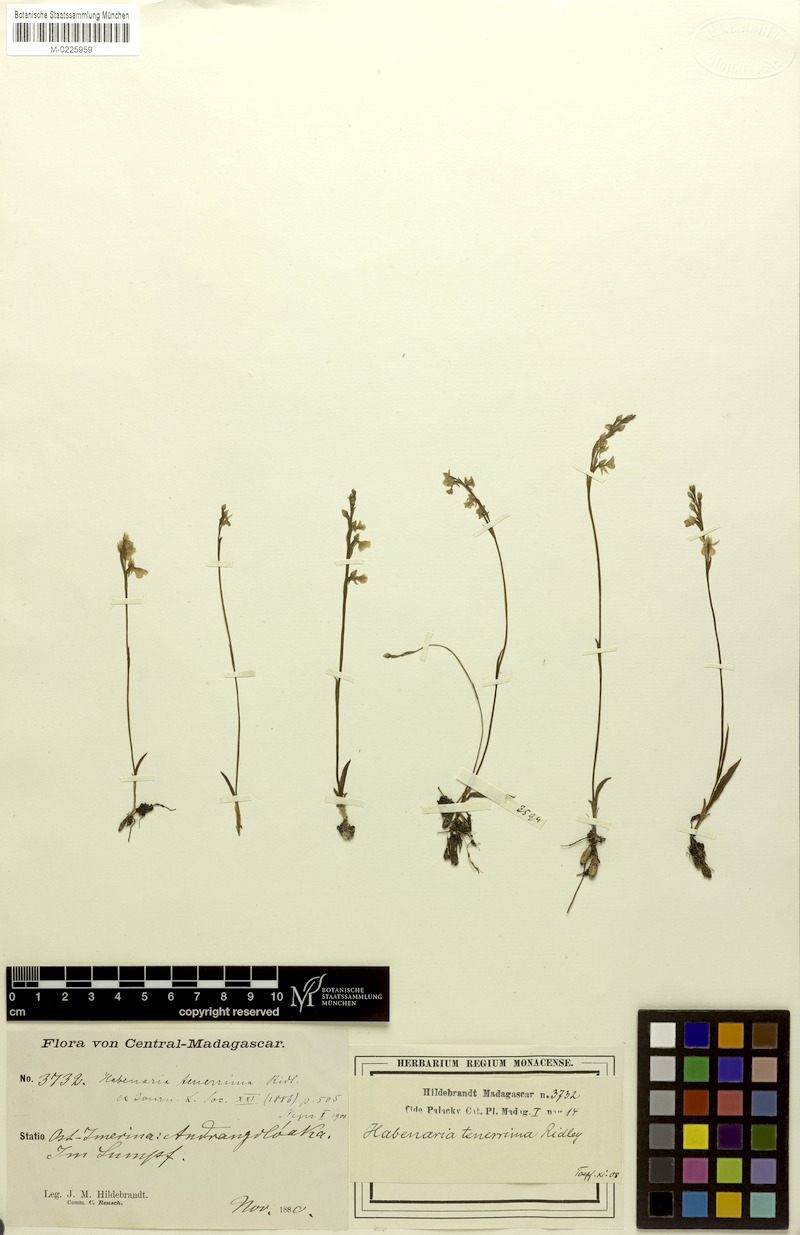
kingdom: Plantae
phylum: Tracheophyta
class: Liliopsida
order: Asparagales
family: Orchidaceae
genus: Cynorkis
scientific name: Cynorkis tenerrima
